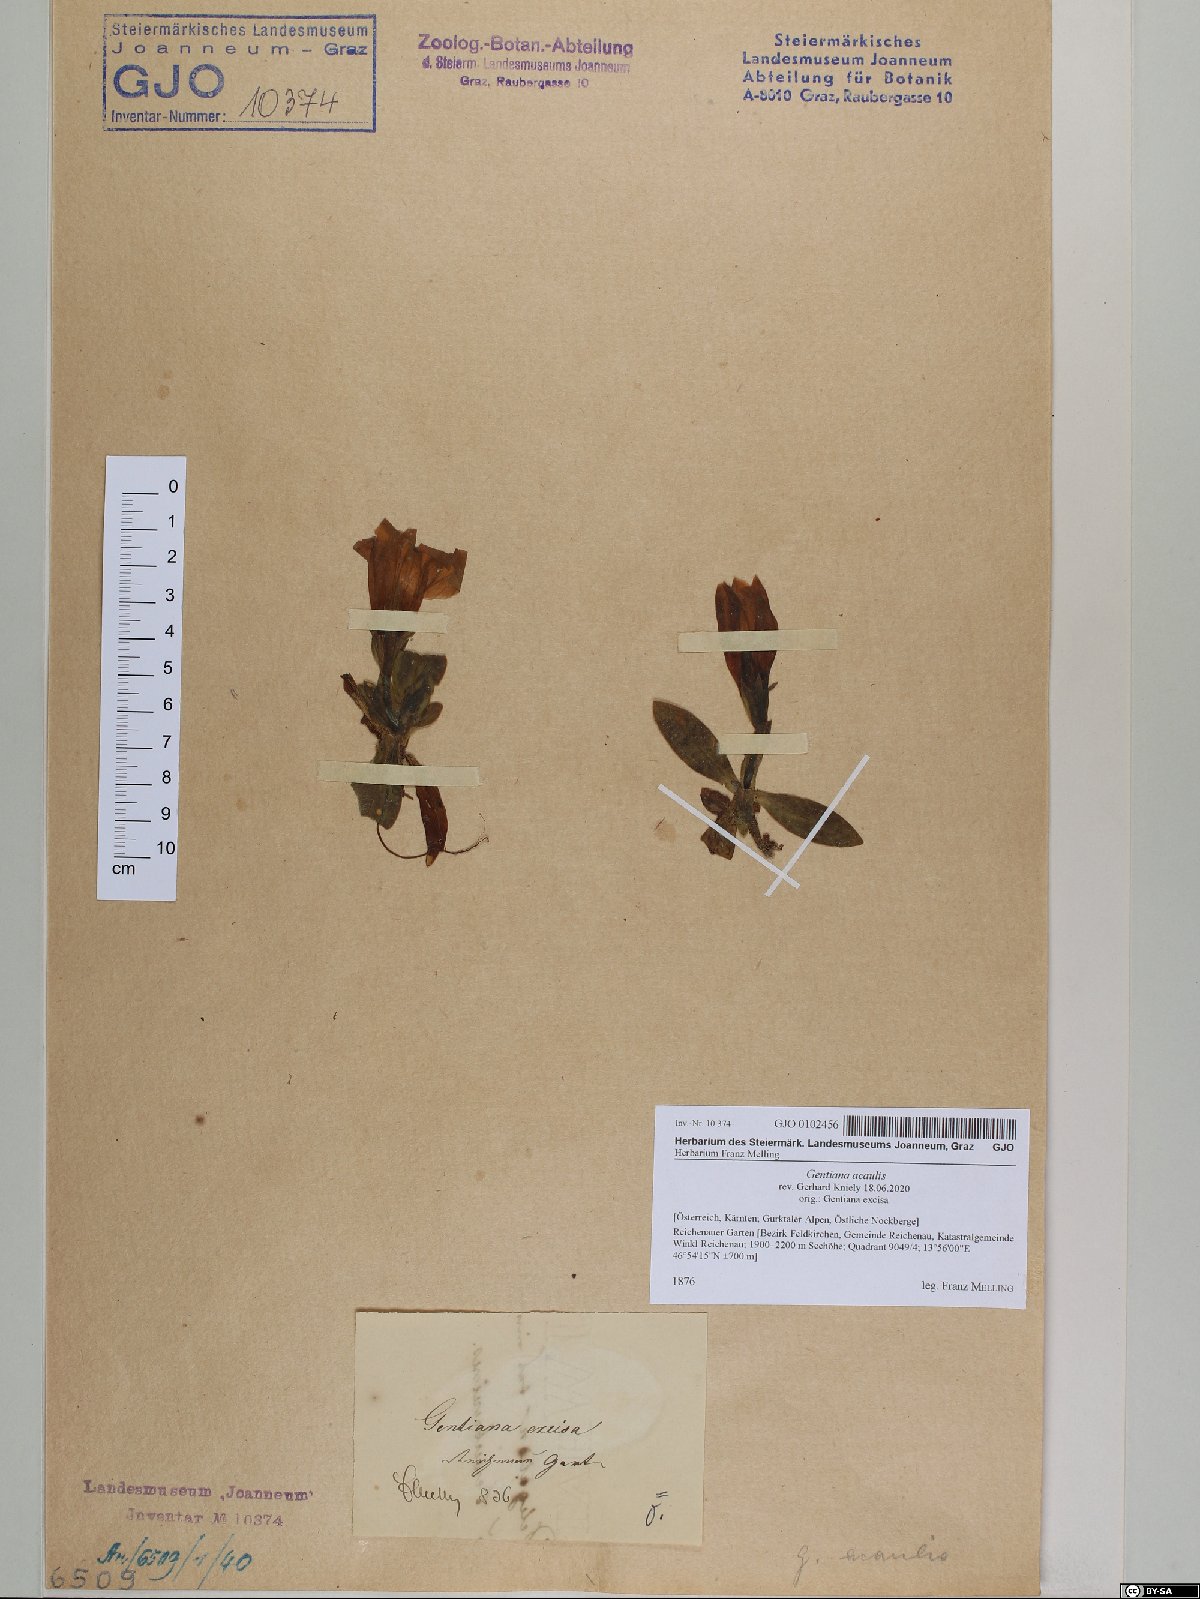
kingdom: Plantae
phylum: Tracheophyta
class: Magnoliopsida
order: Gentianales
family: Gentianaceae
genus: Gentiana
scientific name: Gentiana acaulis
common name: Trumpet gentian
